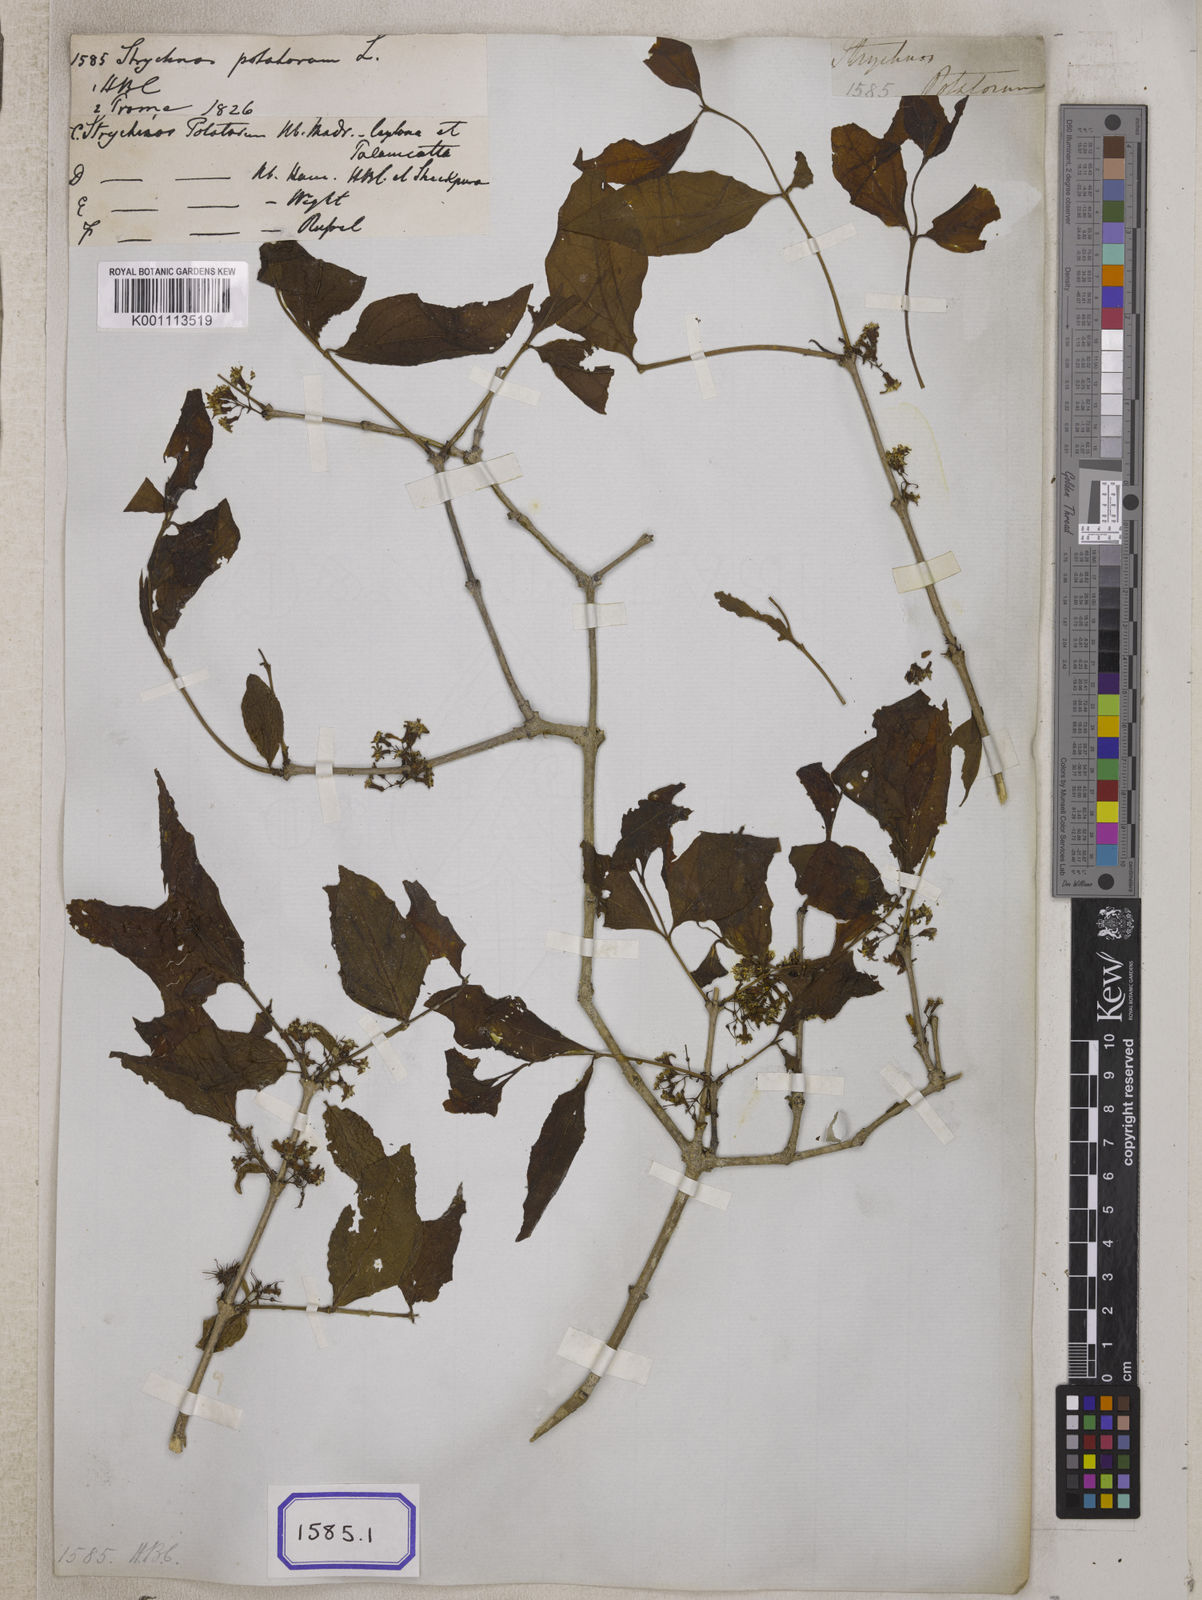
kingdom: Plantae
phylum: Tracheophyta
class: Magnoliopsida
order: Gentianales
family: Loganiaceae
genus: Strychnos
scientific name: Strychnos potatorum
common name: Clearing-nut-tree
